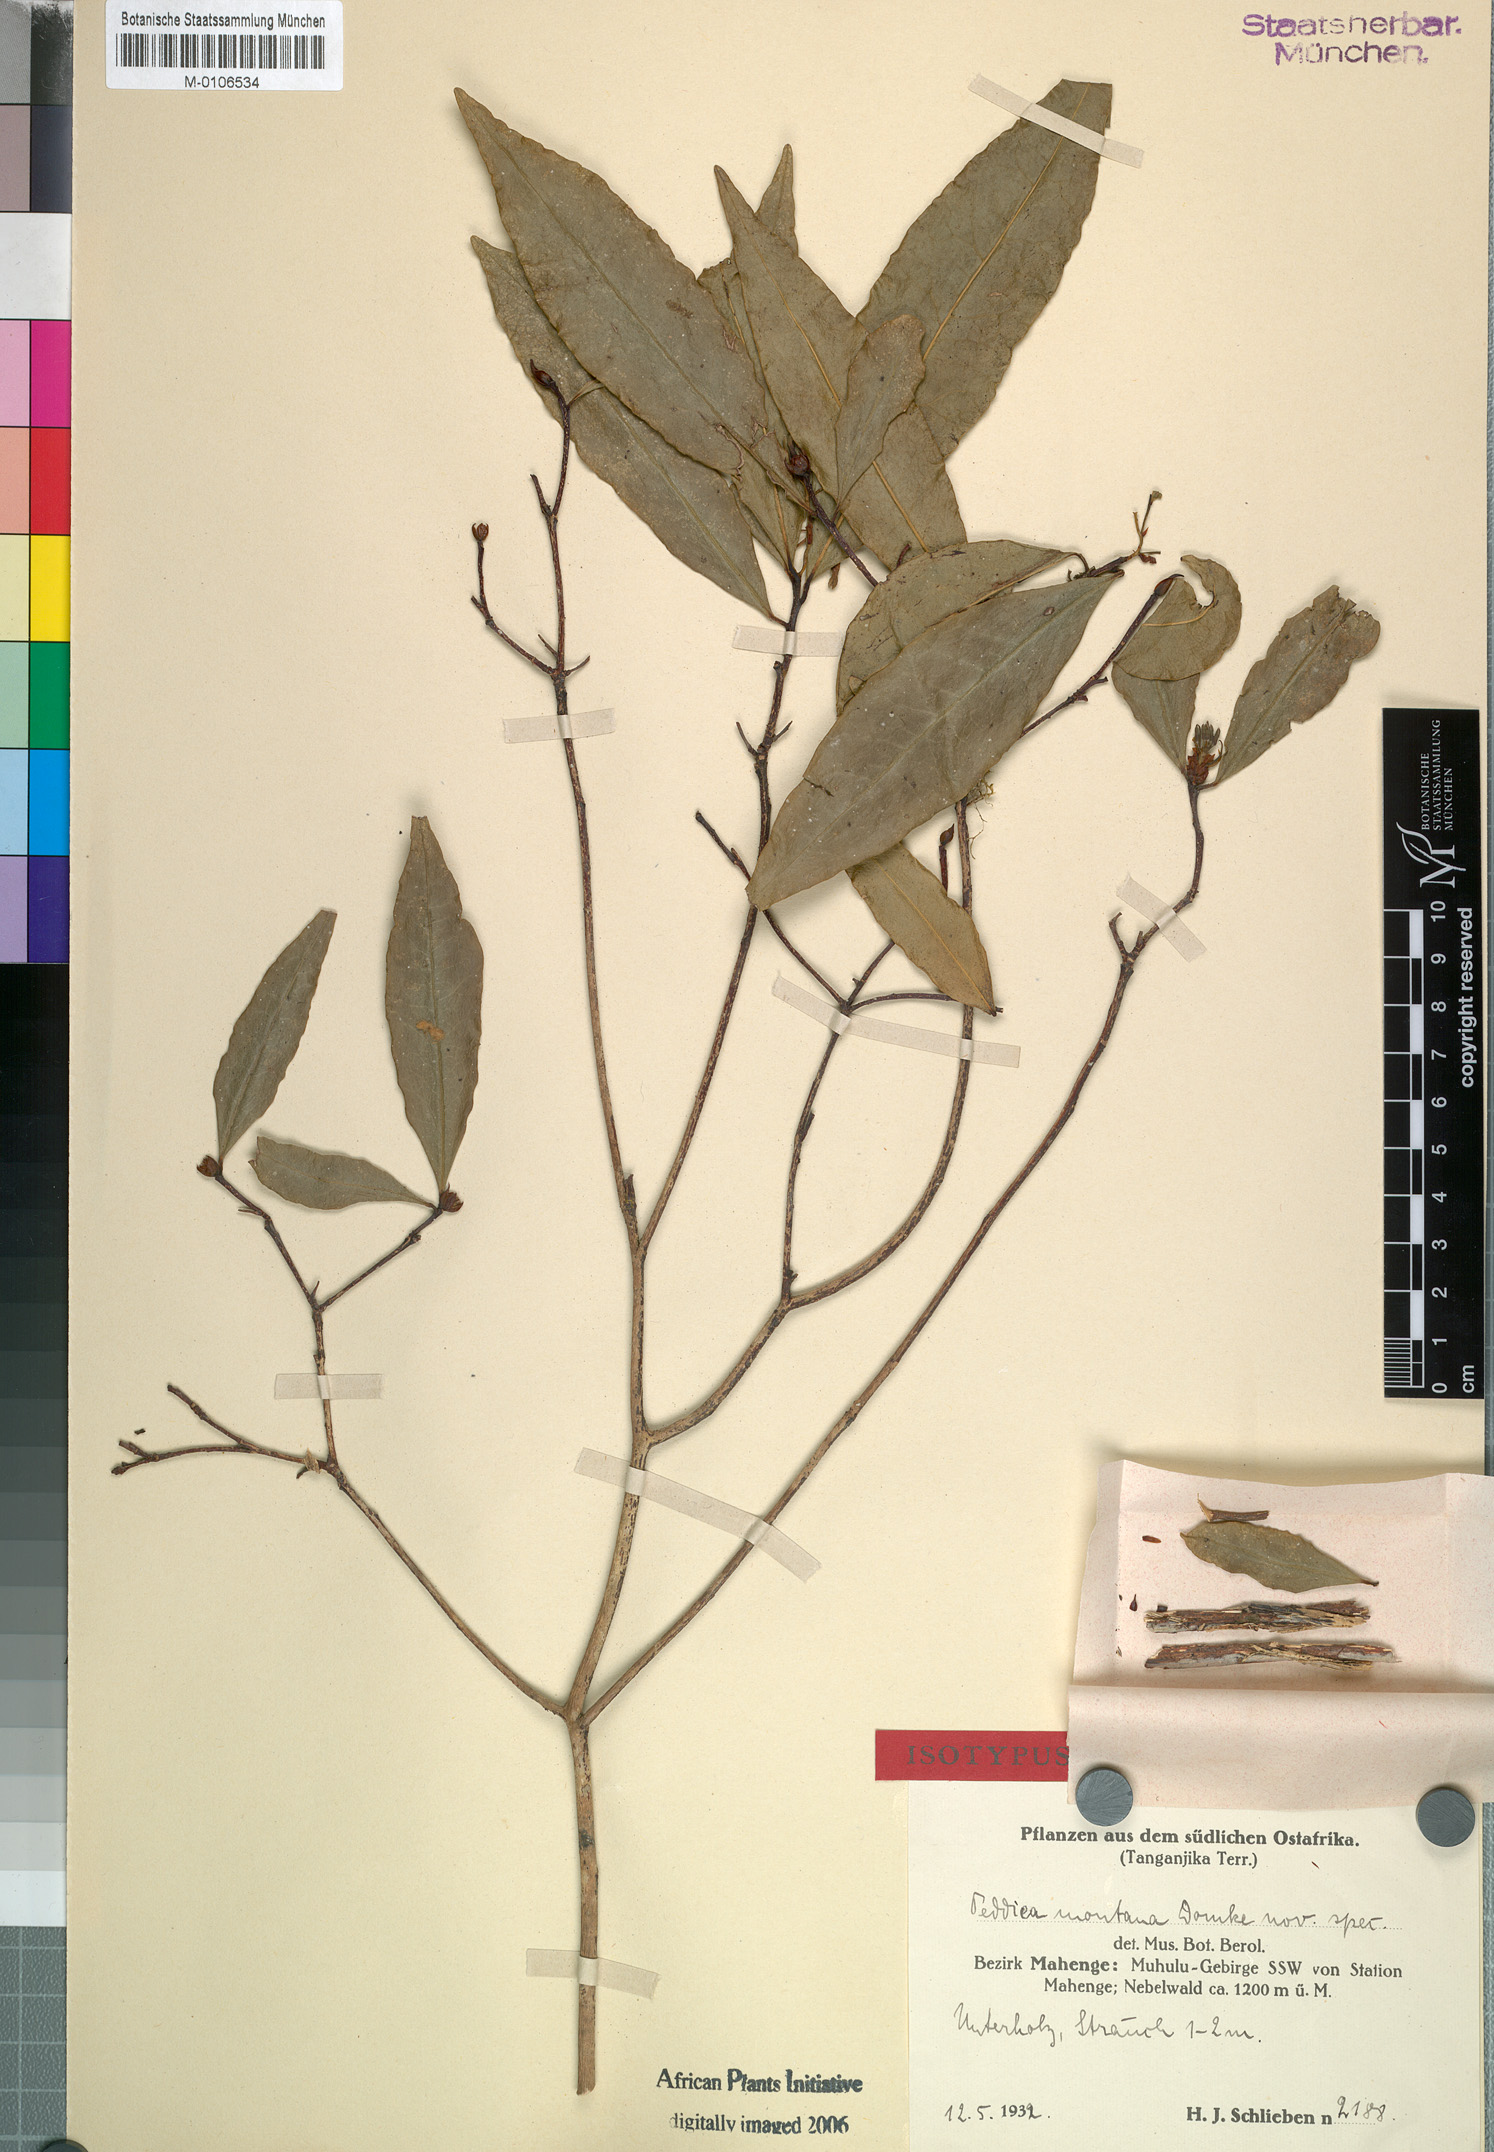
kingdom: Plantae
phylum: Tracheophyta
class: Magnoliopsida
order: Malvales
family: Thymelaeaceae
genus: Peddiea
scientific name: Peddiea montana
